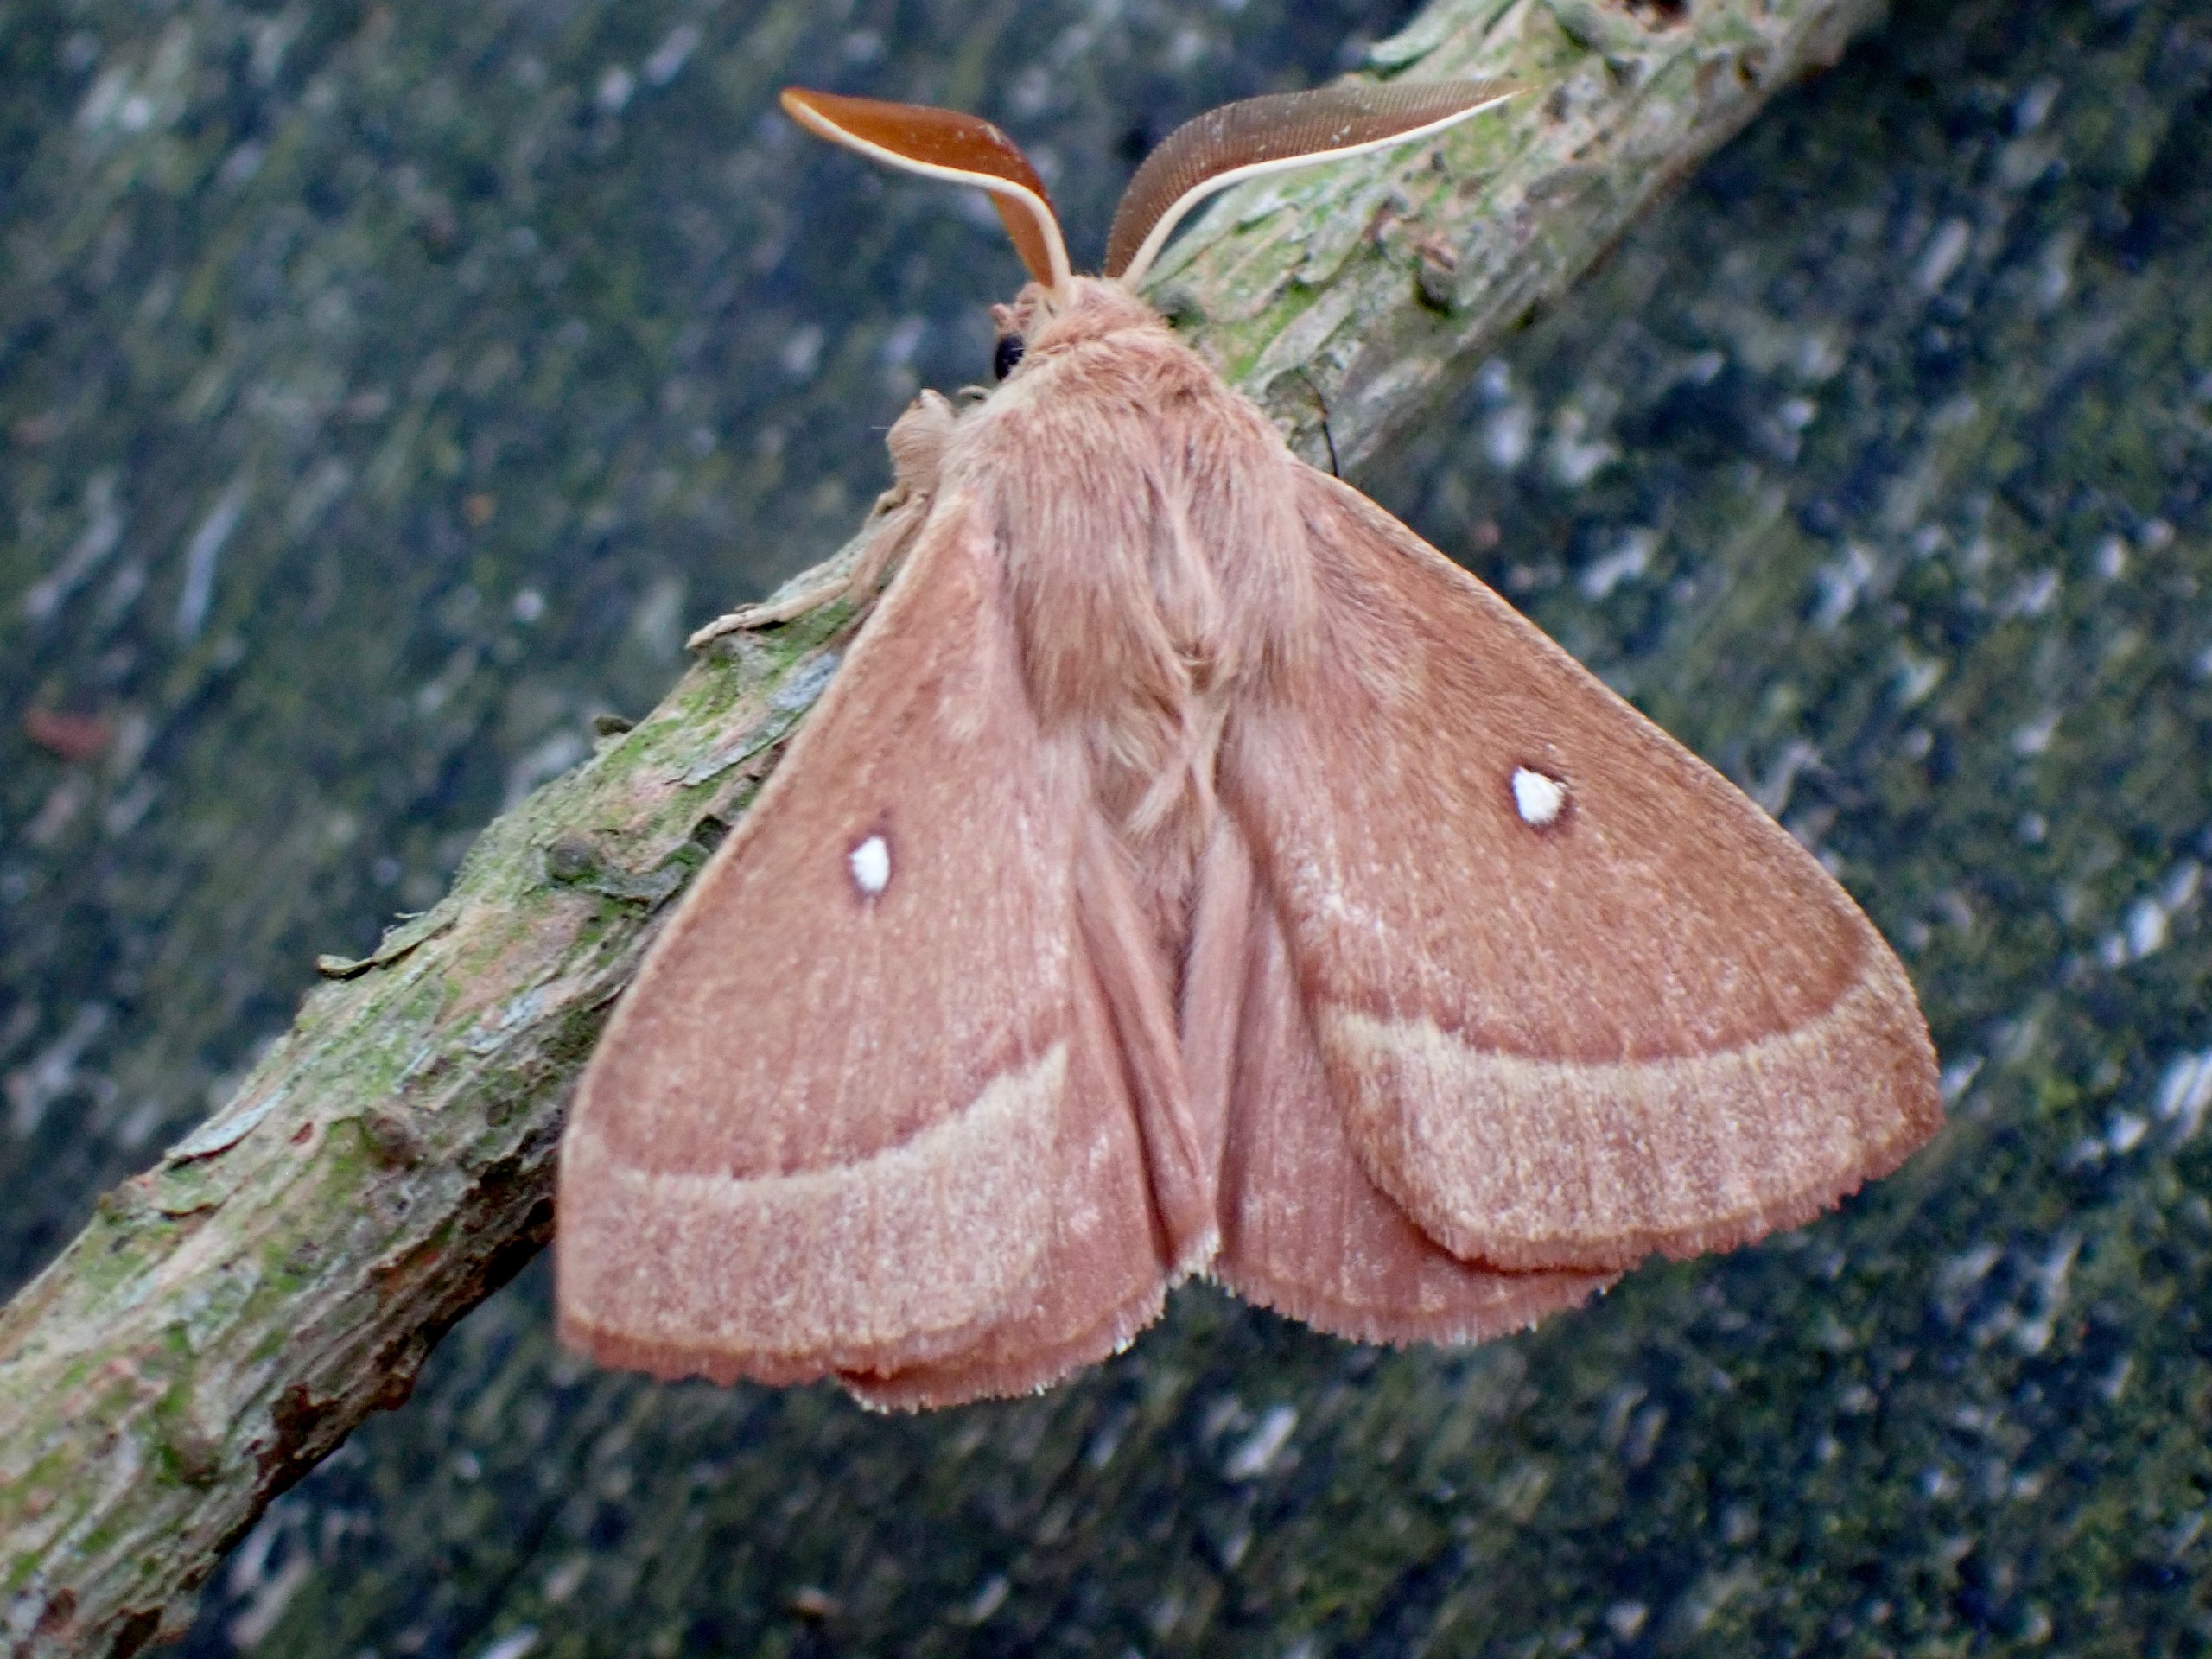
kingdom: Animalia
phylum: Arthropoda
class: Insecta
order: Lepidoptera
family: Lasiocampidae
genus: Lasiocampa
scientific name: Lasiocampa trifolii
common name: Kløverspinder
